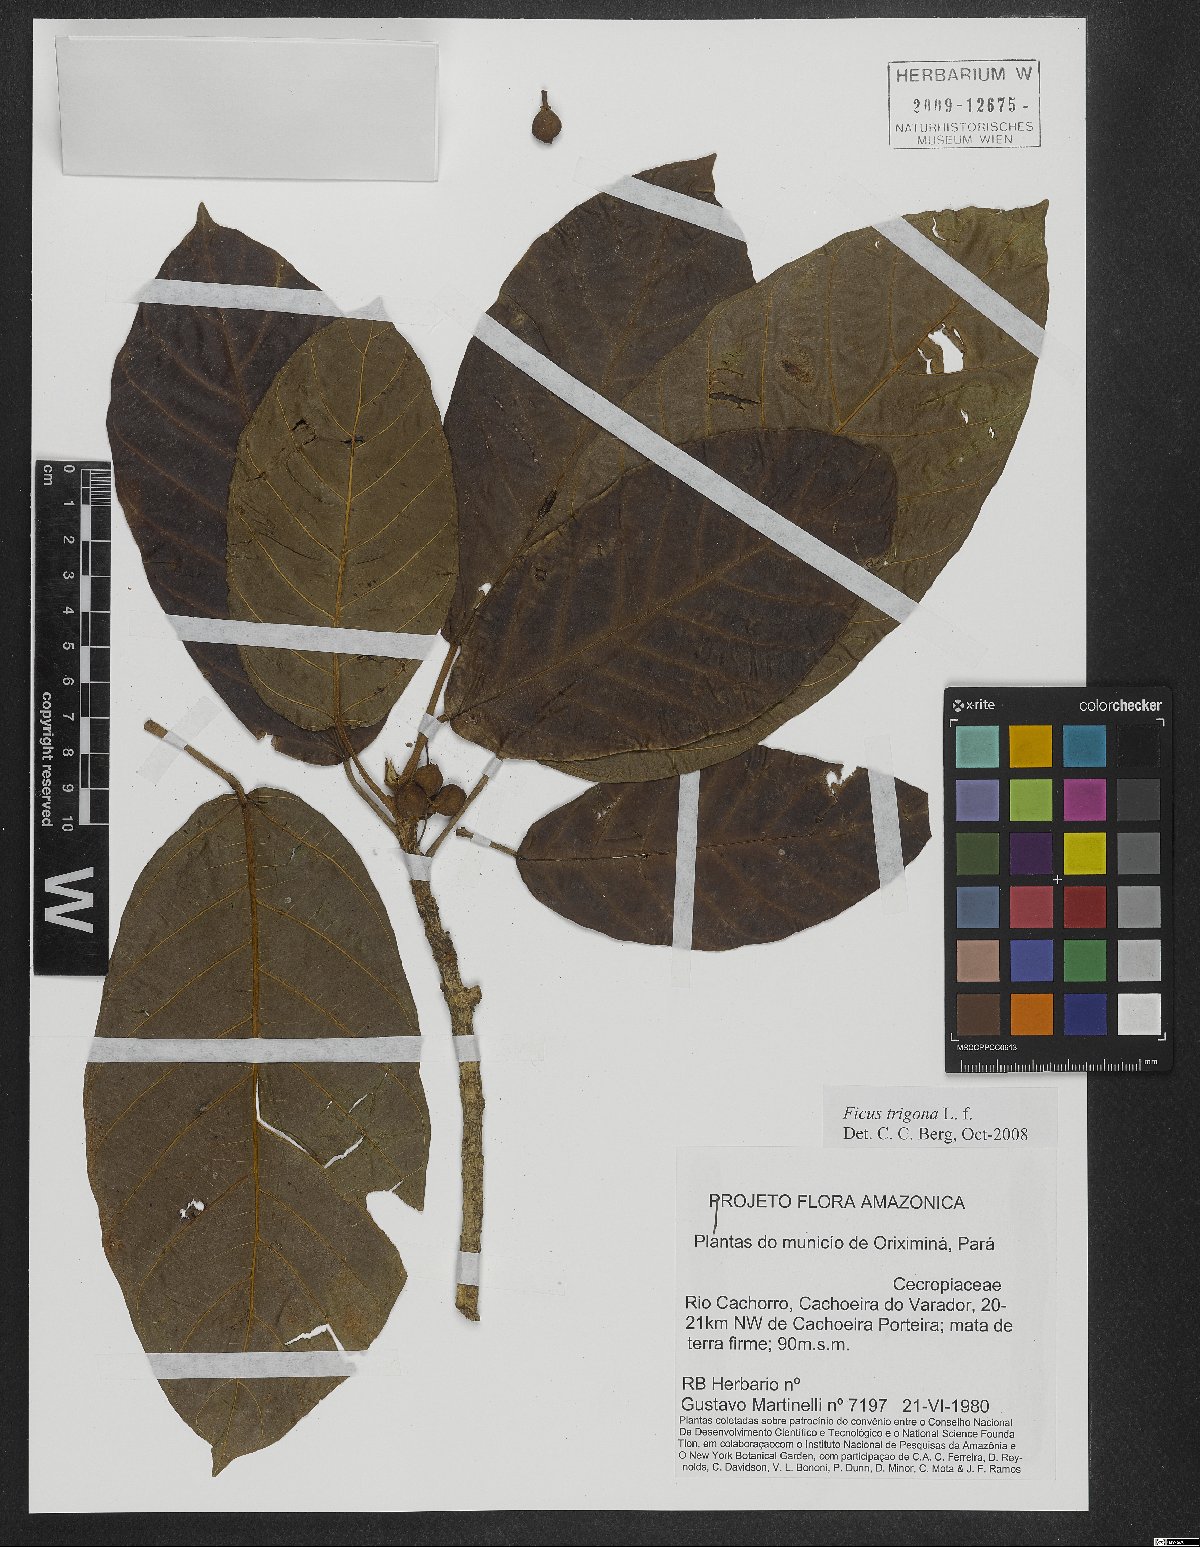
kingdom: Plantae
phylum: Tracheophyta
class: Magnoliopsida
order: Rosales
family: Moraceae
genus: Ficus
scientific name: Ficus trigona
